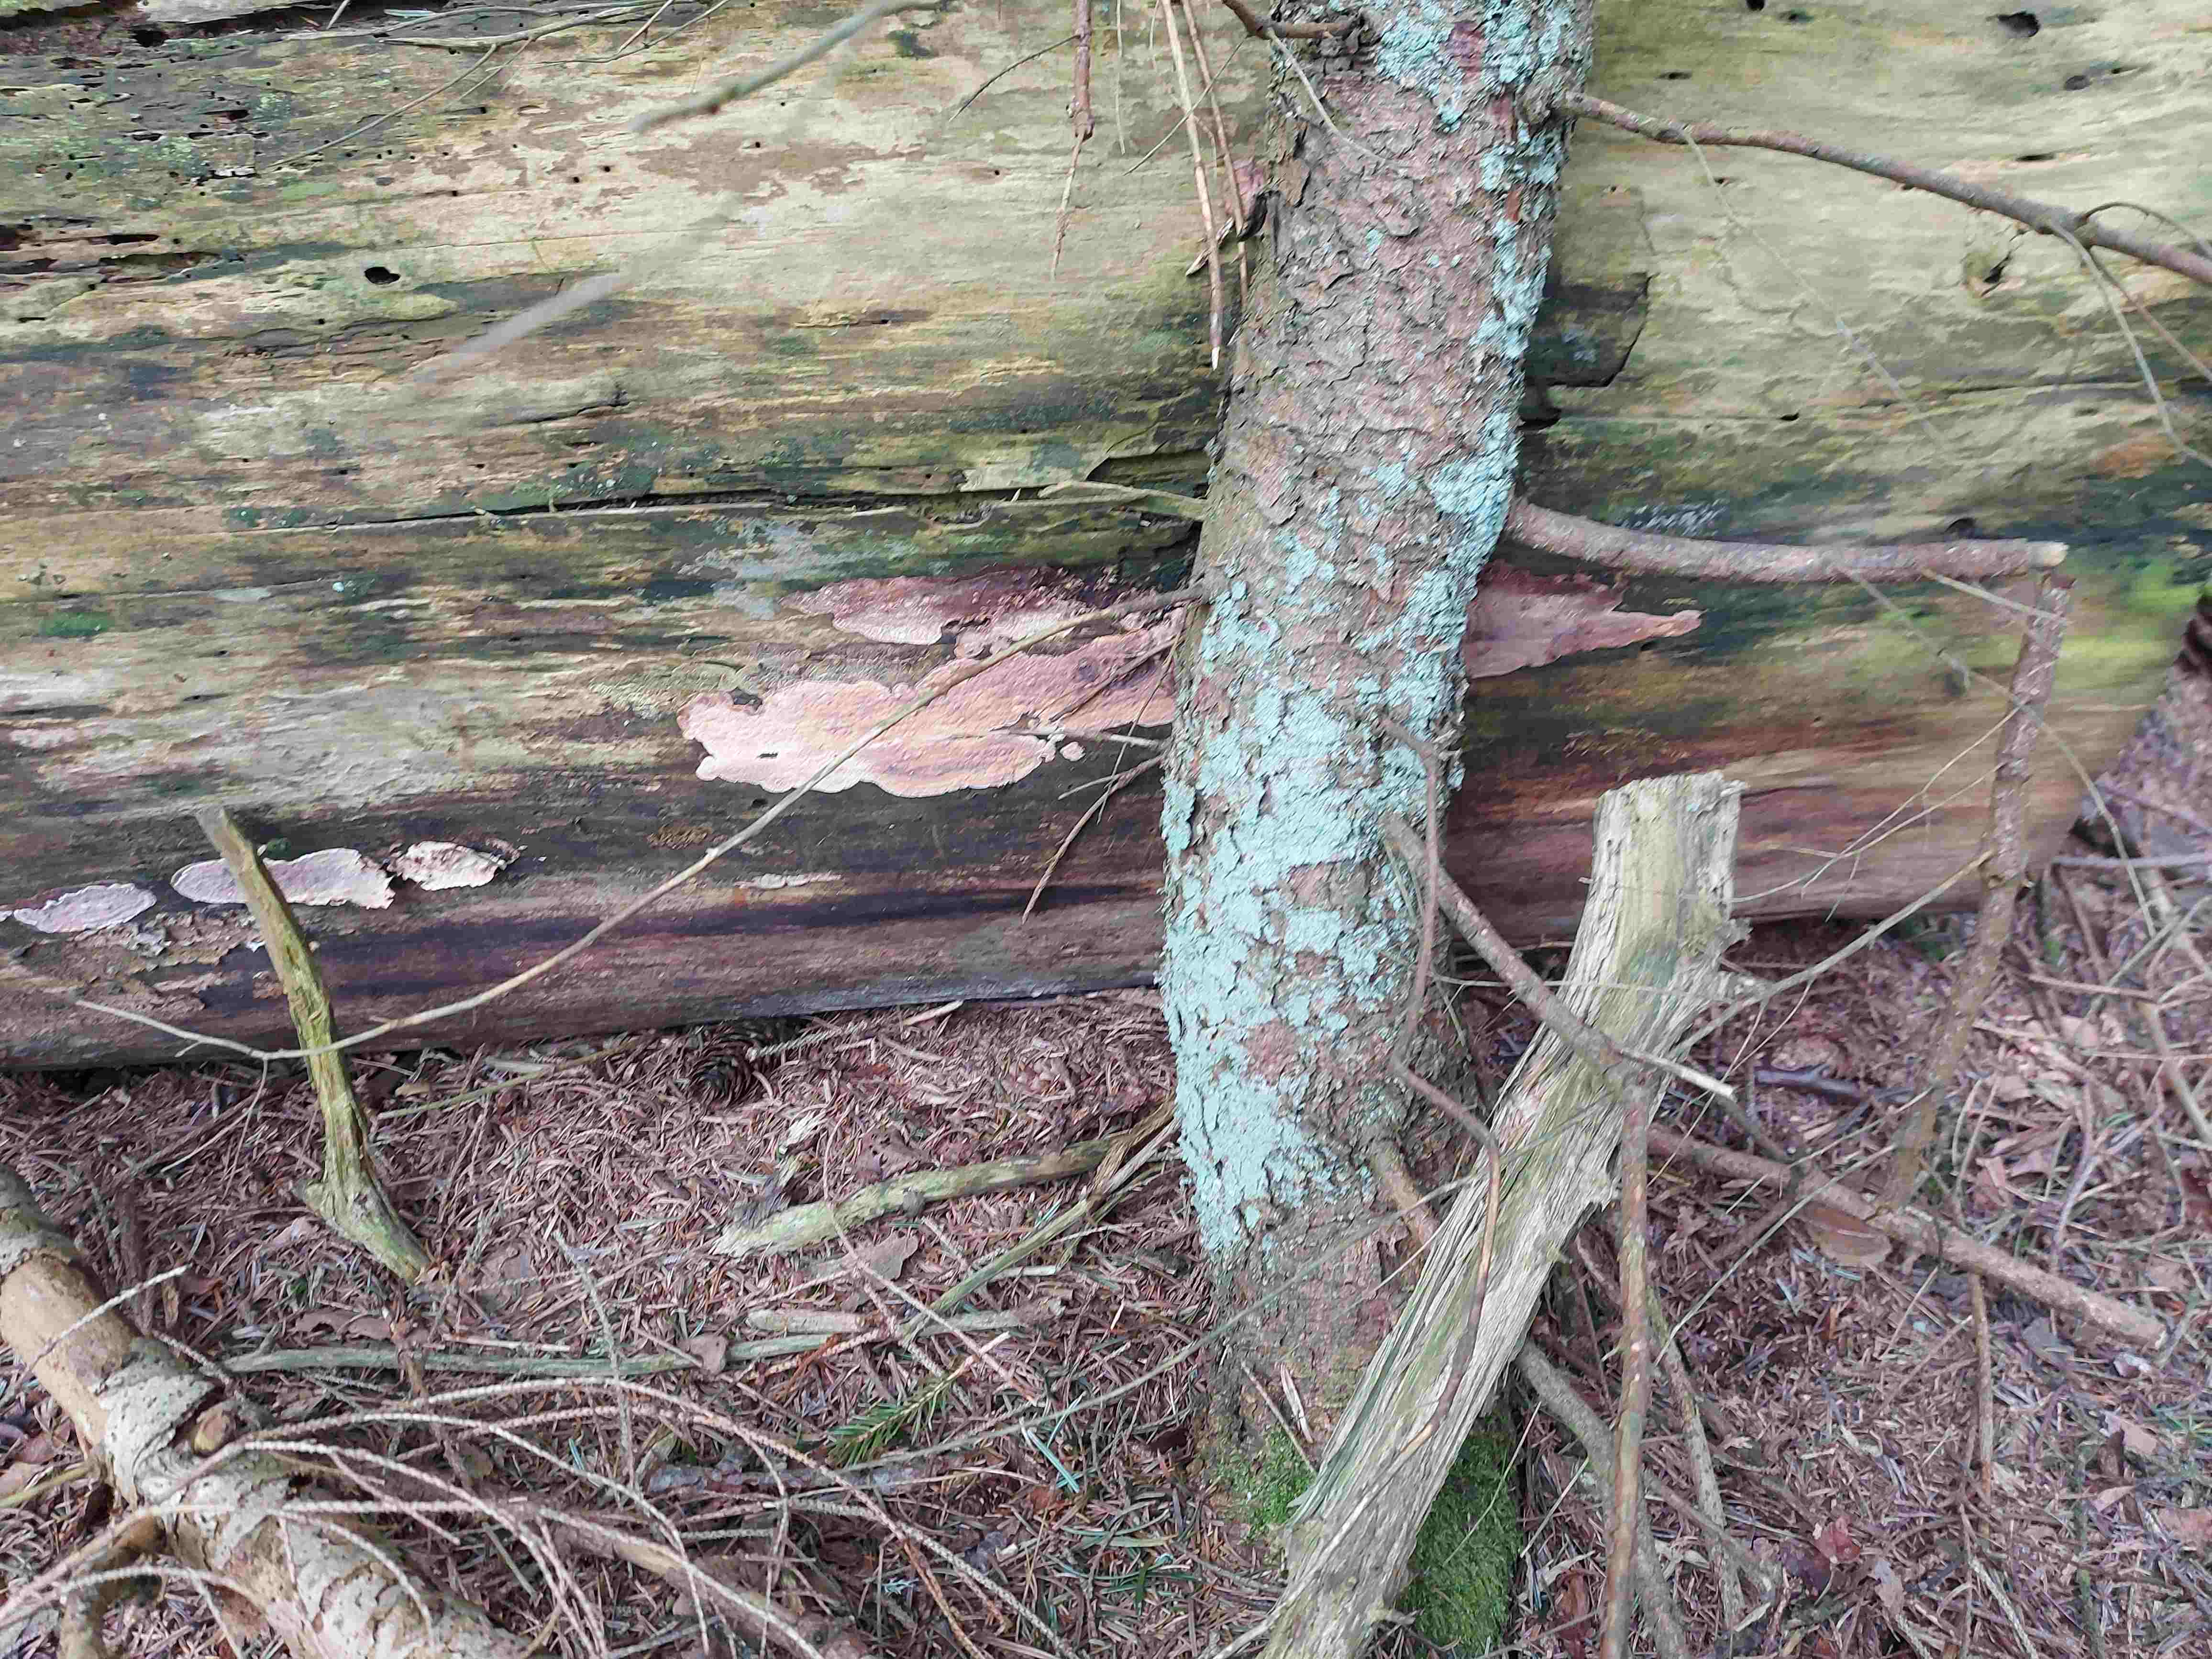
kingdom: Fungi
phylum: Basidiomycota
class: Agaricomycetes
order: Polyporales
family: Dacryobolaceae
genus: Dacryobolus
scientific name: Dacryobolus karstenii
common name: glat vulkanskorpe
